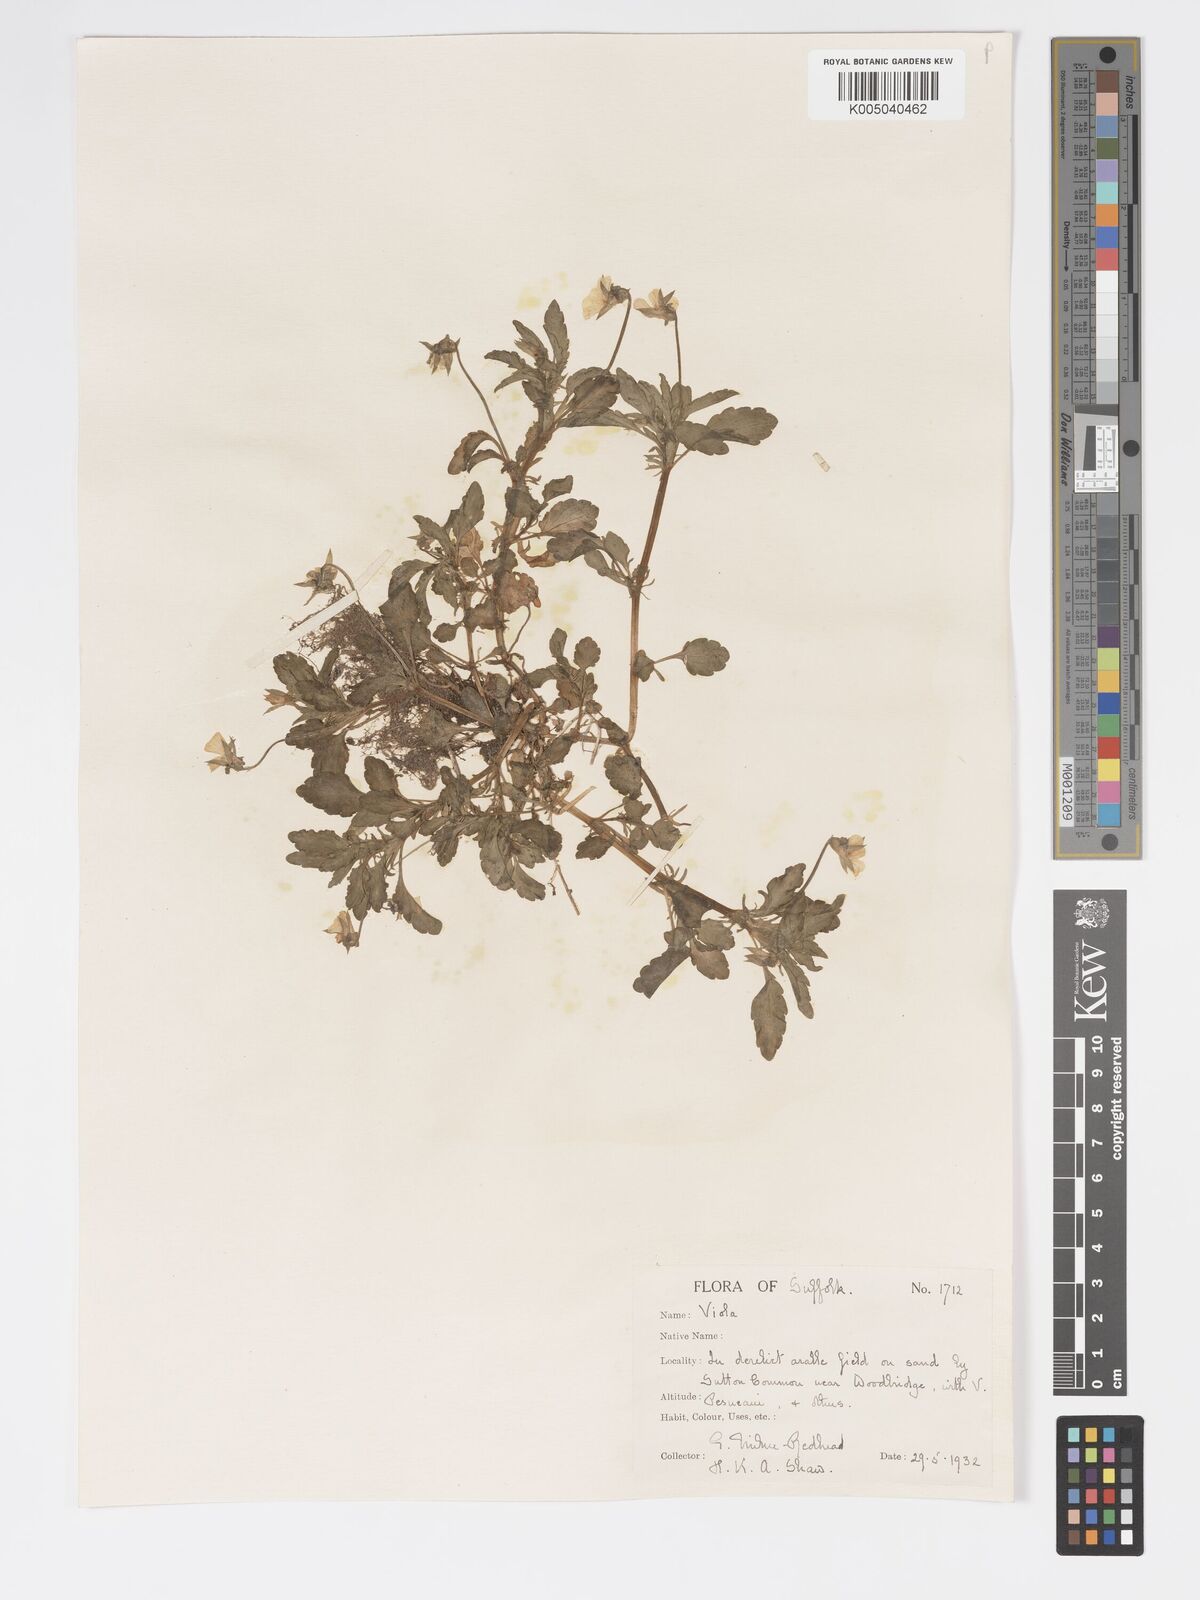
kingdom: Plantae
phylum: Tracheophyta
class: Magnoliopsida
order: Malpighiales
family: Violaceae
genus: Viola
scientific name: Viola arvensis
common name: Field pansy
